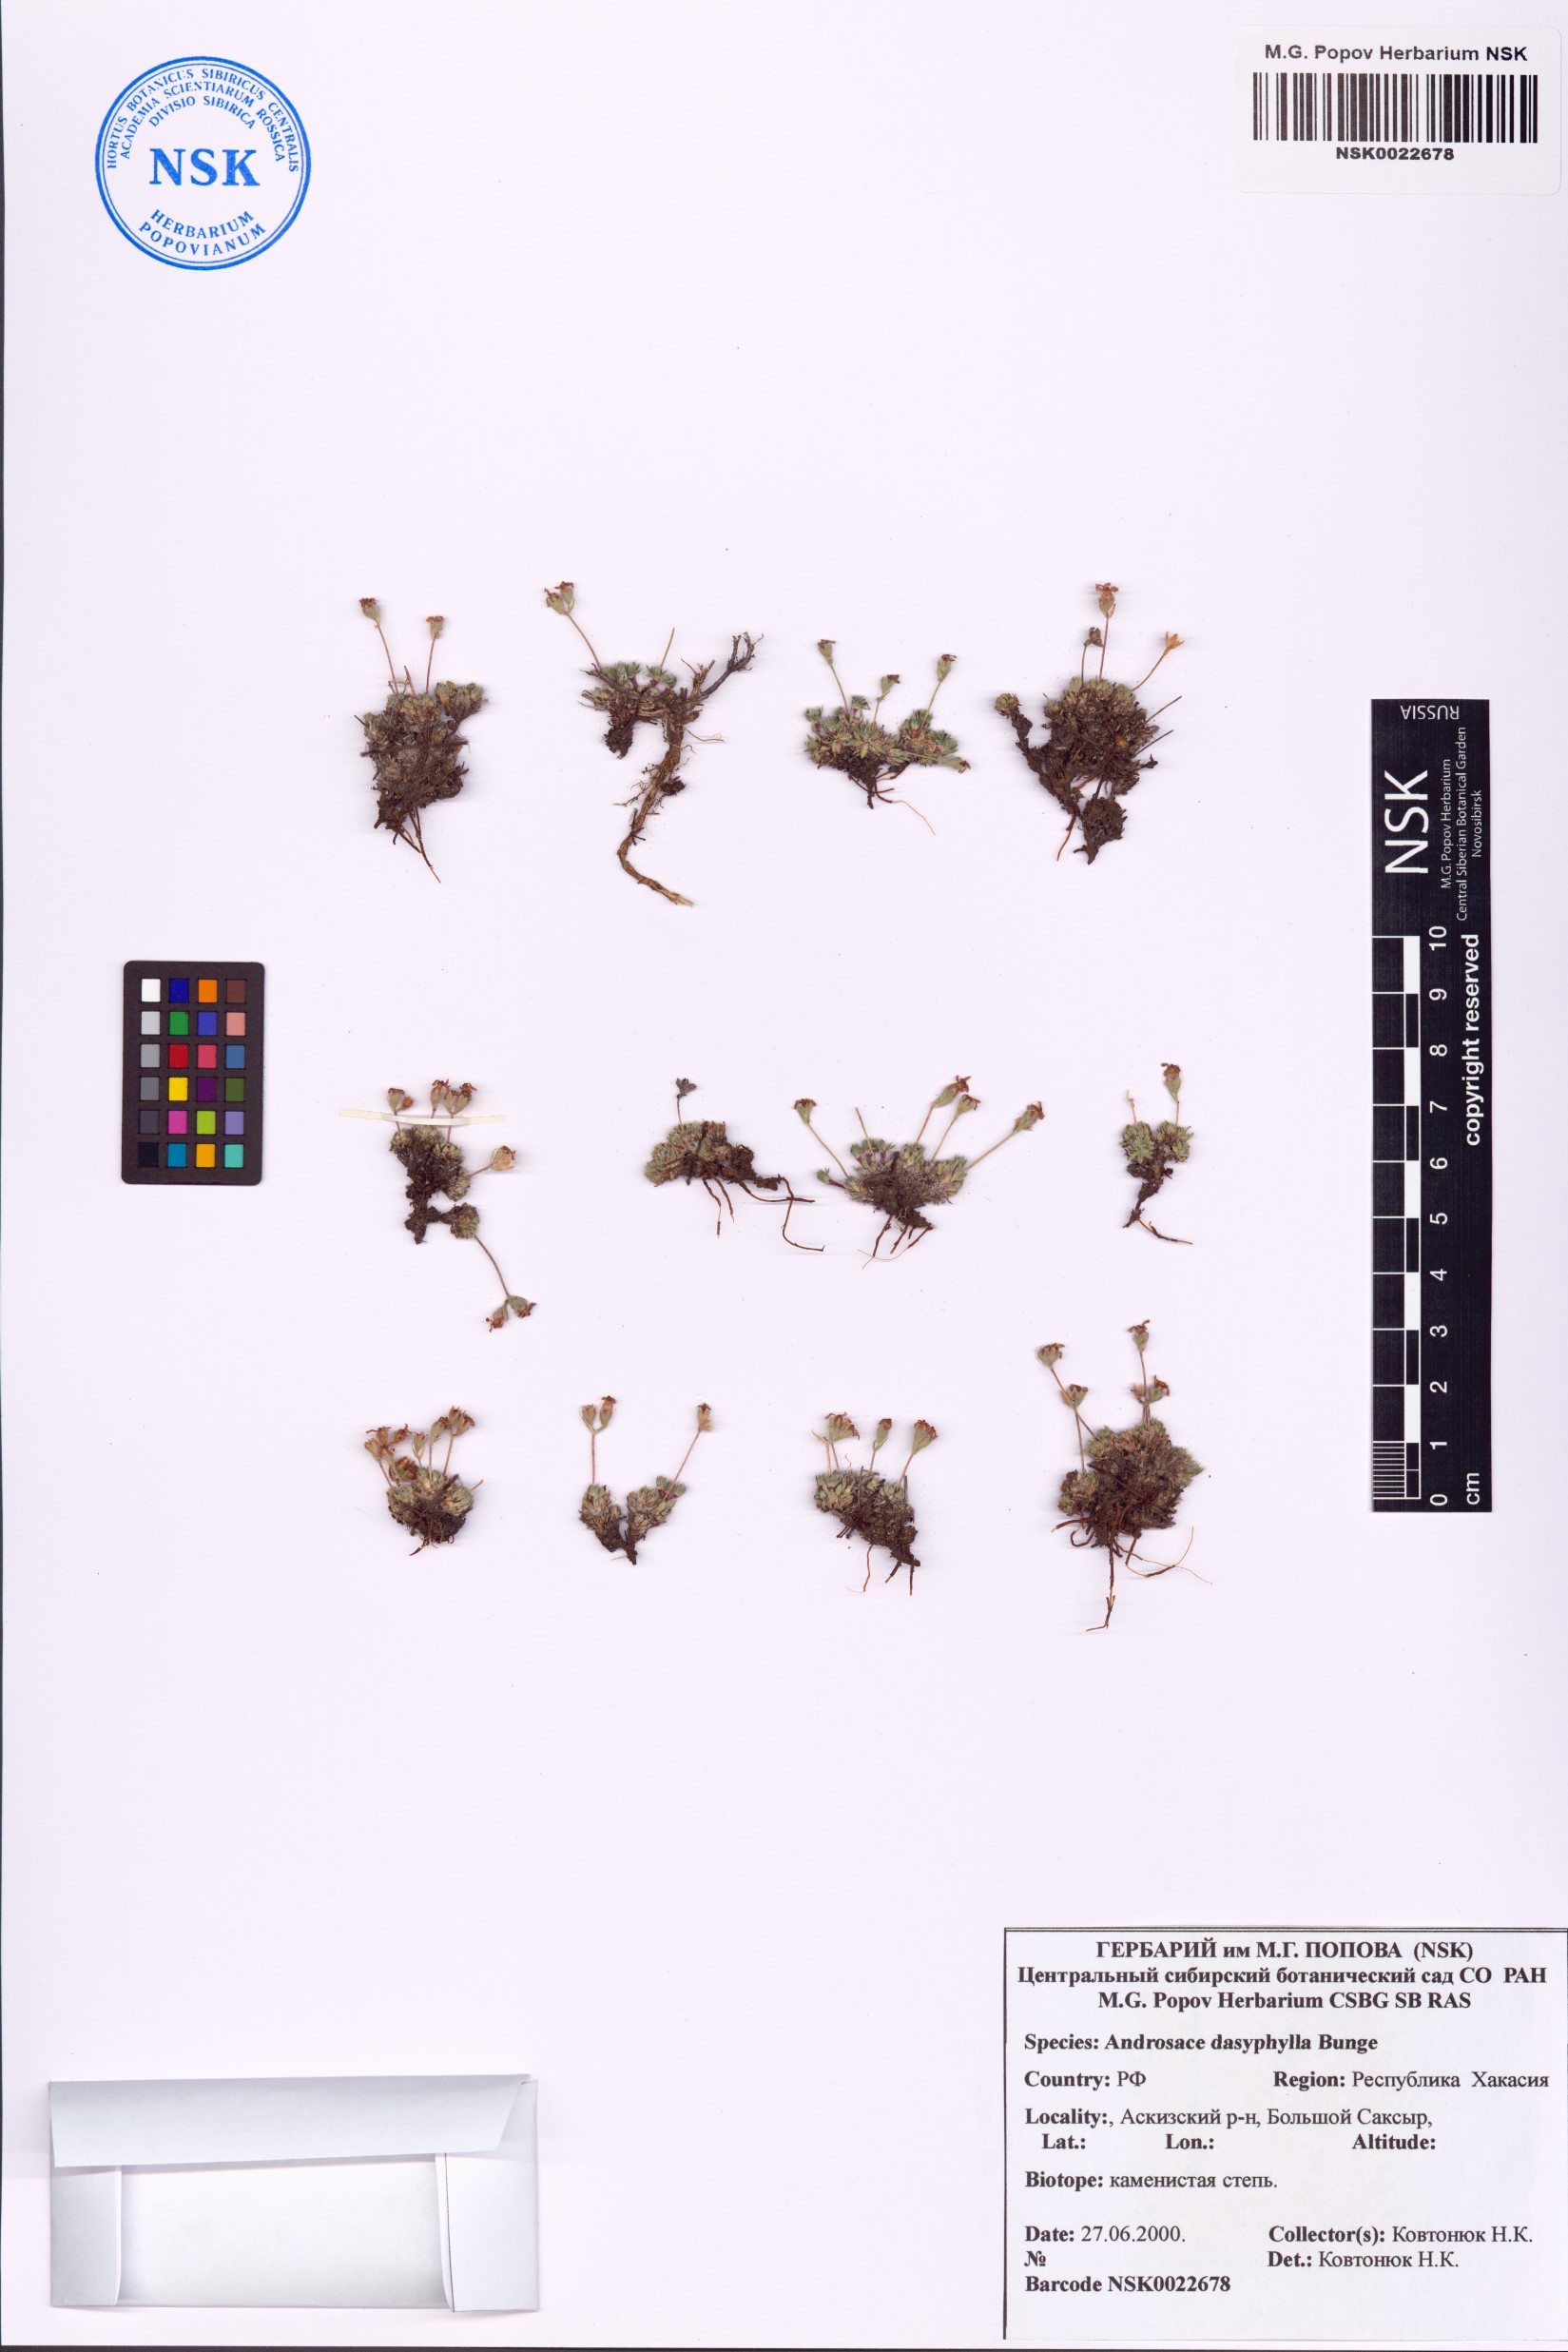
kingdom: Plantae
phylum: Tracheophyta
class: Magnoliopsida
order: Ericales
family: Primulaceae
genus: Androsace
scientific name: Androsace dasyphylla
